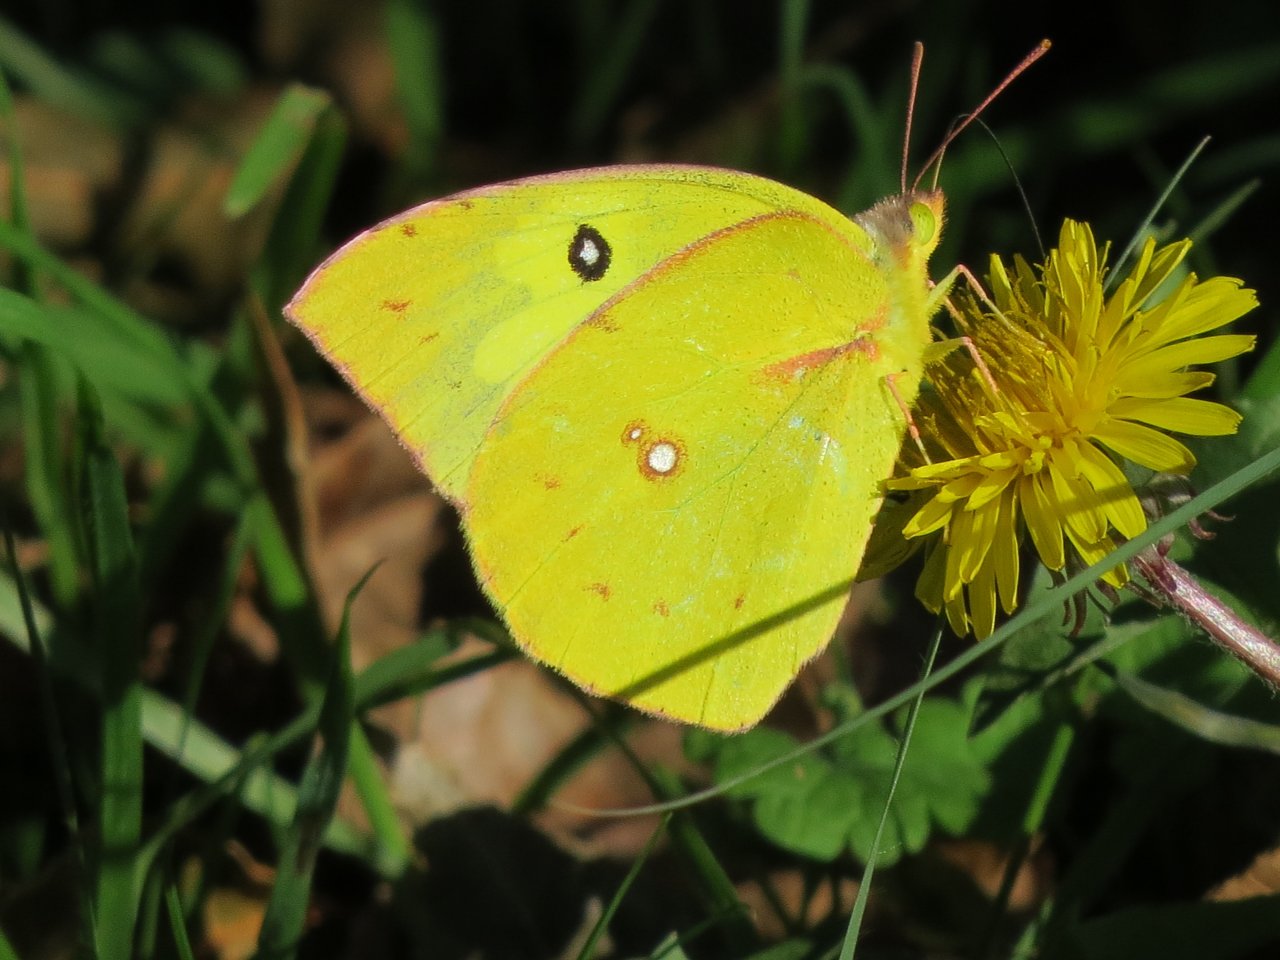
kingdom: Animalia
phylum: Arthropoda
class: Insecta
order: Lepidoptera
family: Pieridae
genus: Zerene
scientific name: Zerene cesonia
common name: Southern Dogface
